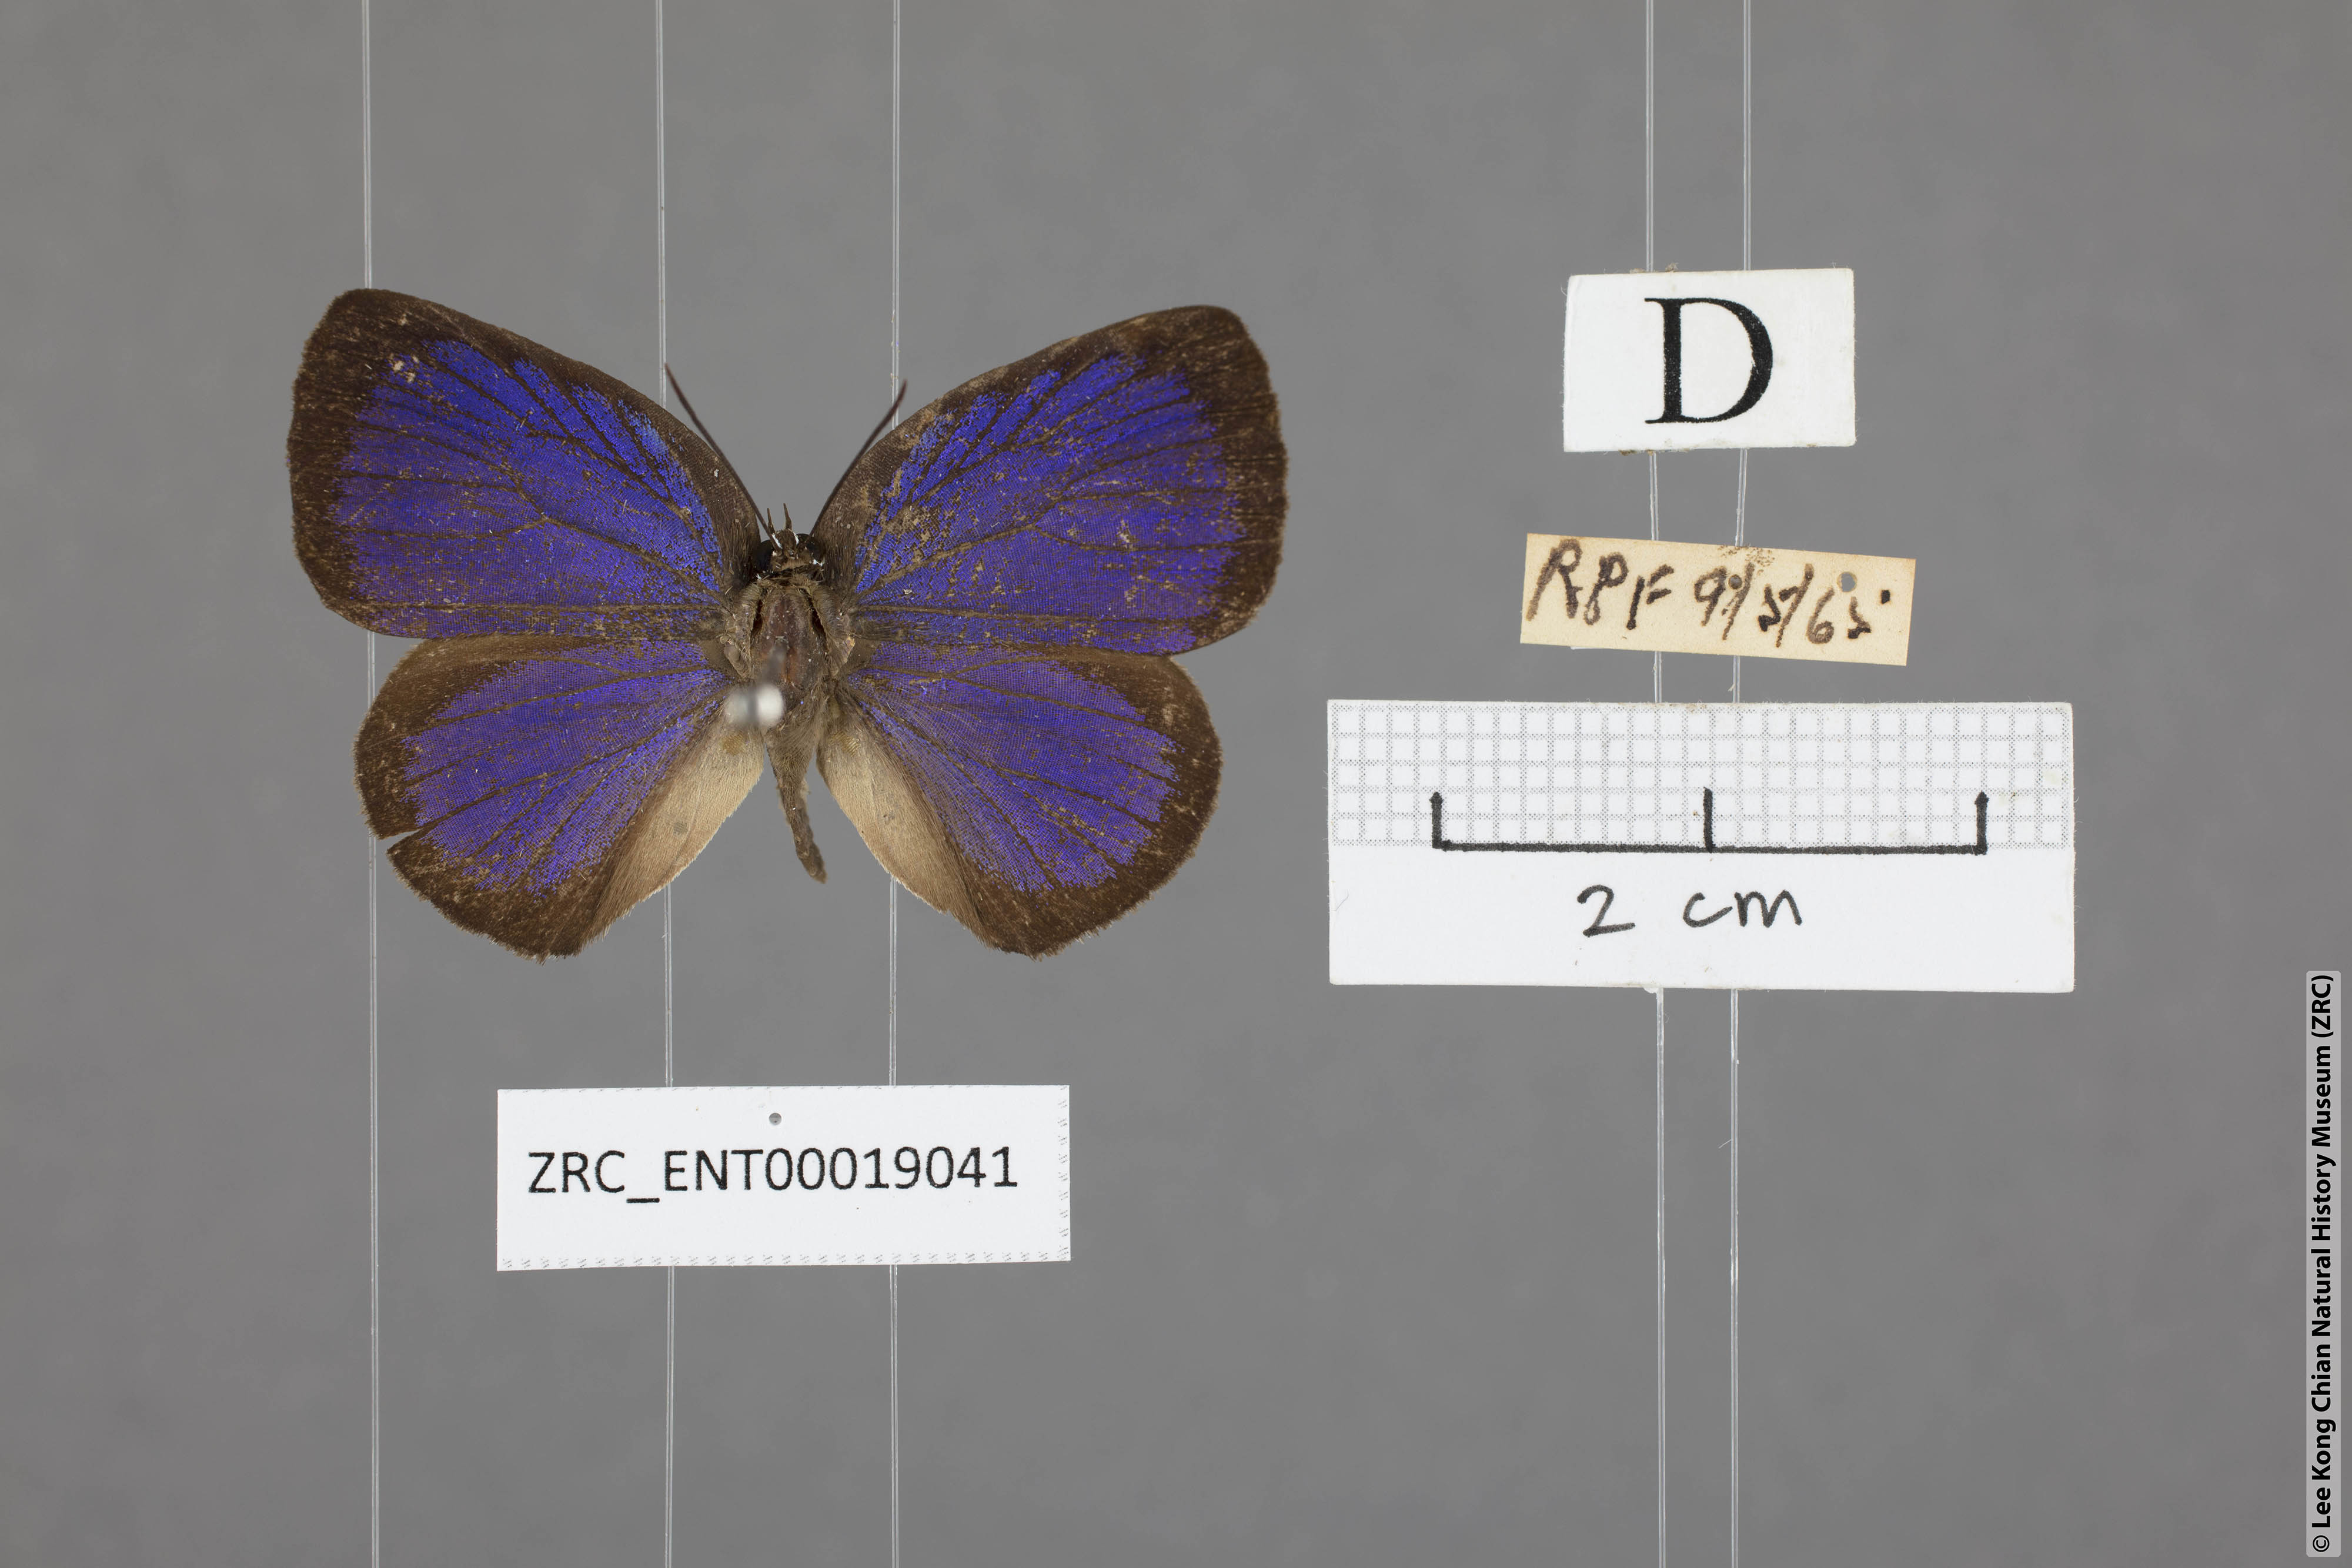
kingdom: Animalia
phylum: Arthropoda
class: Insecta
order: Lepidoptera
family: Lycaenidae
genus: Arhopala
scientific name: Arhopala agesilaus
